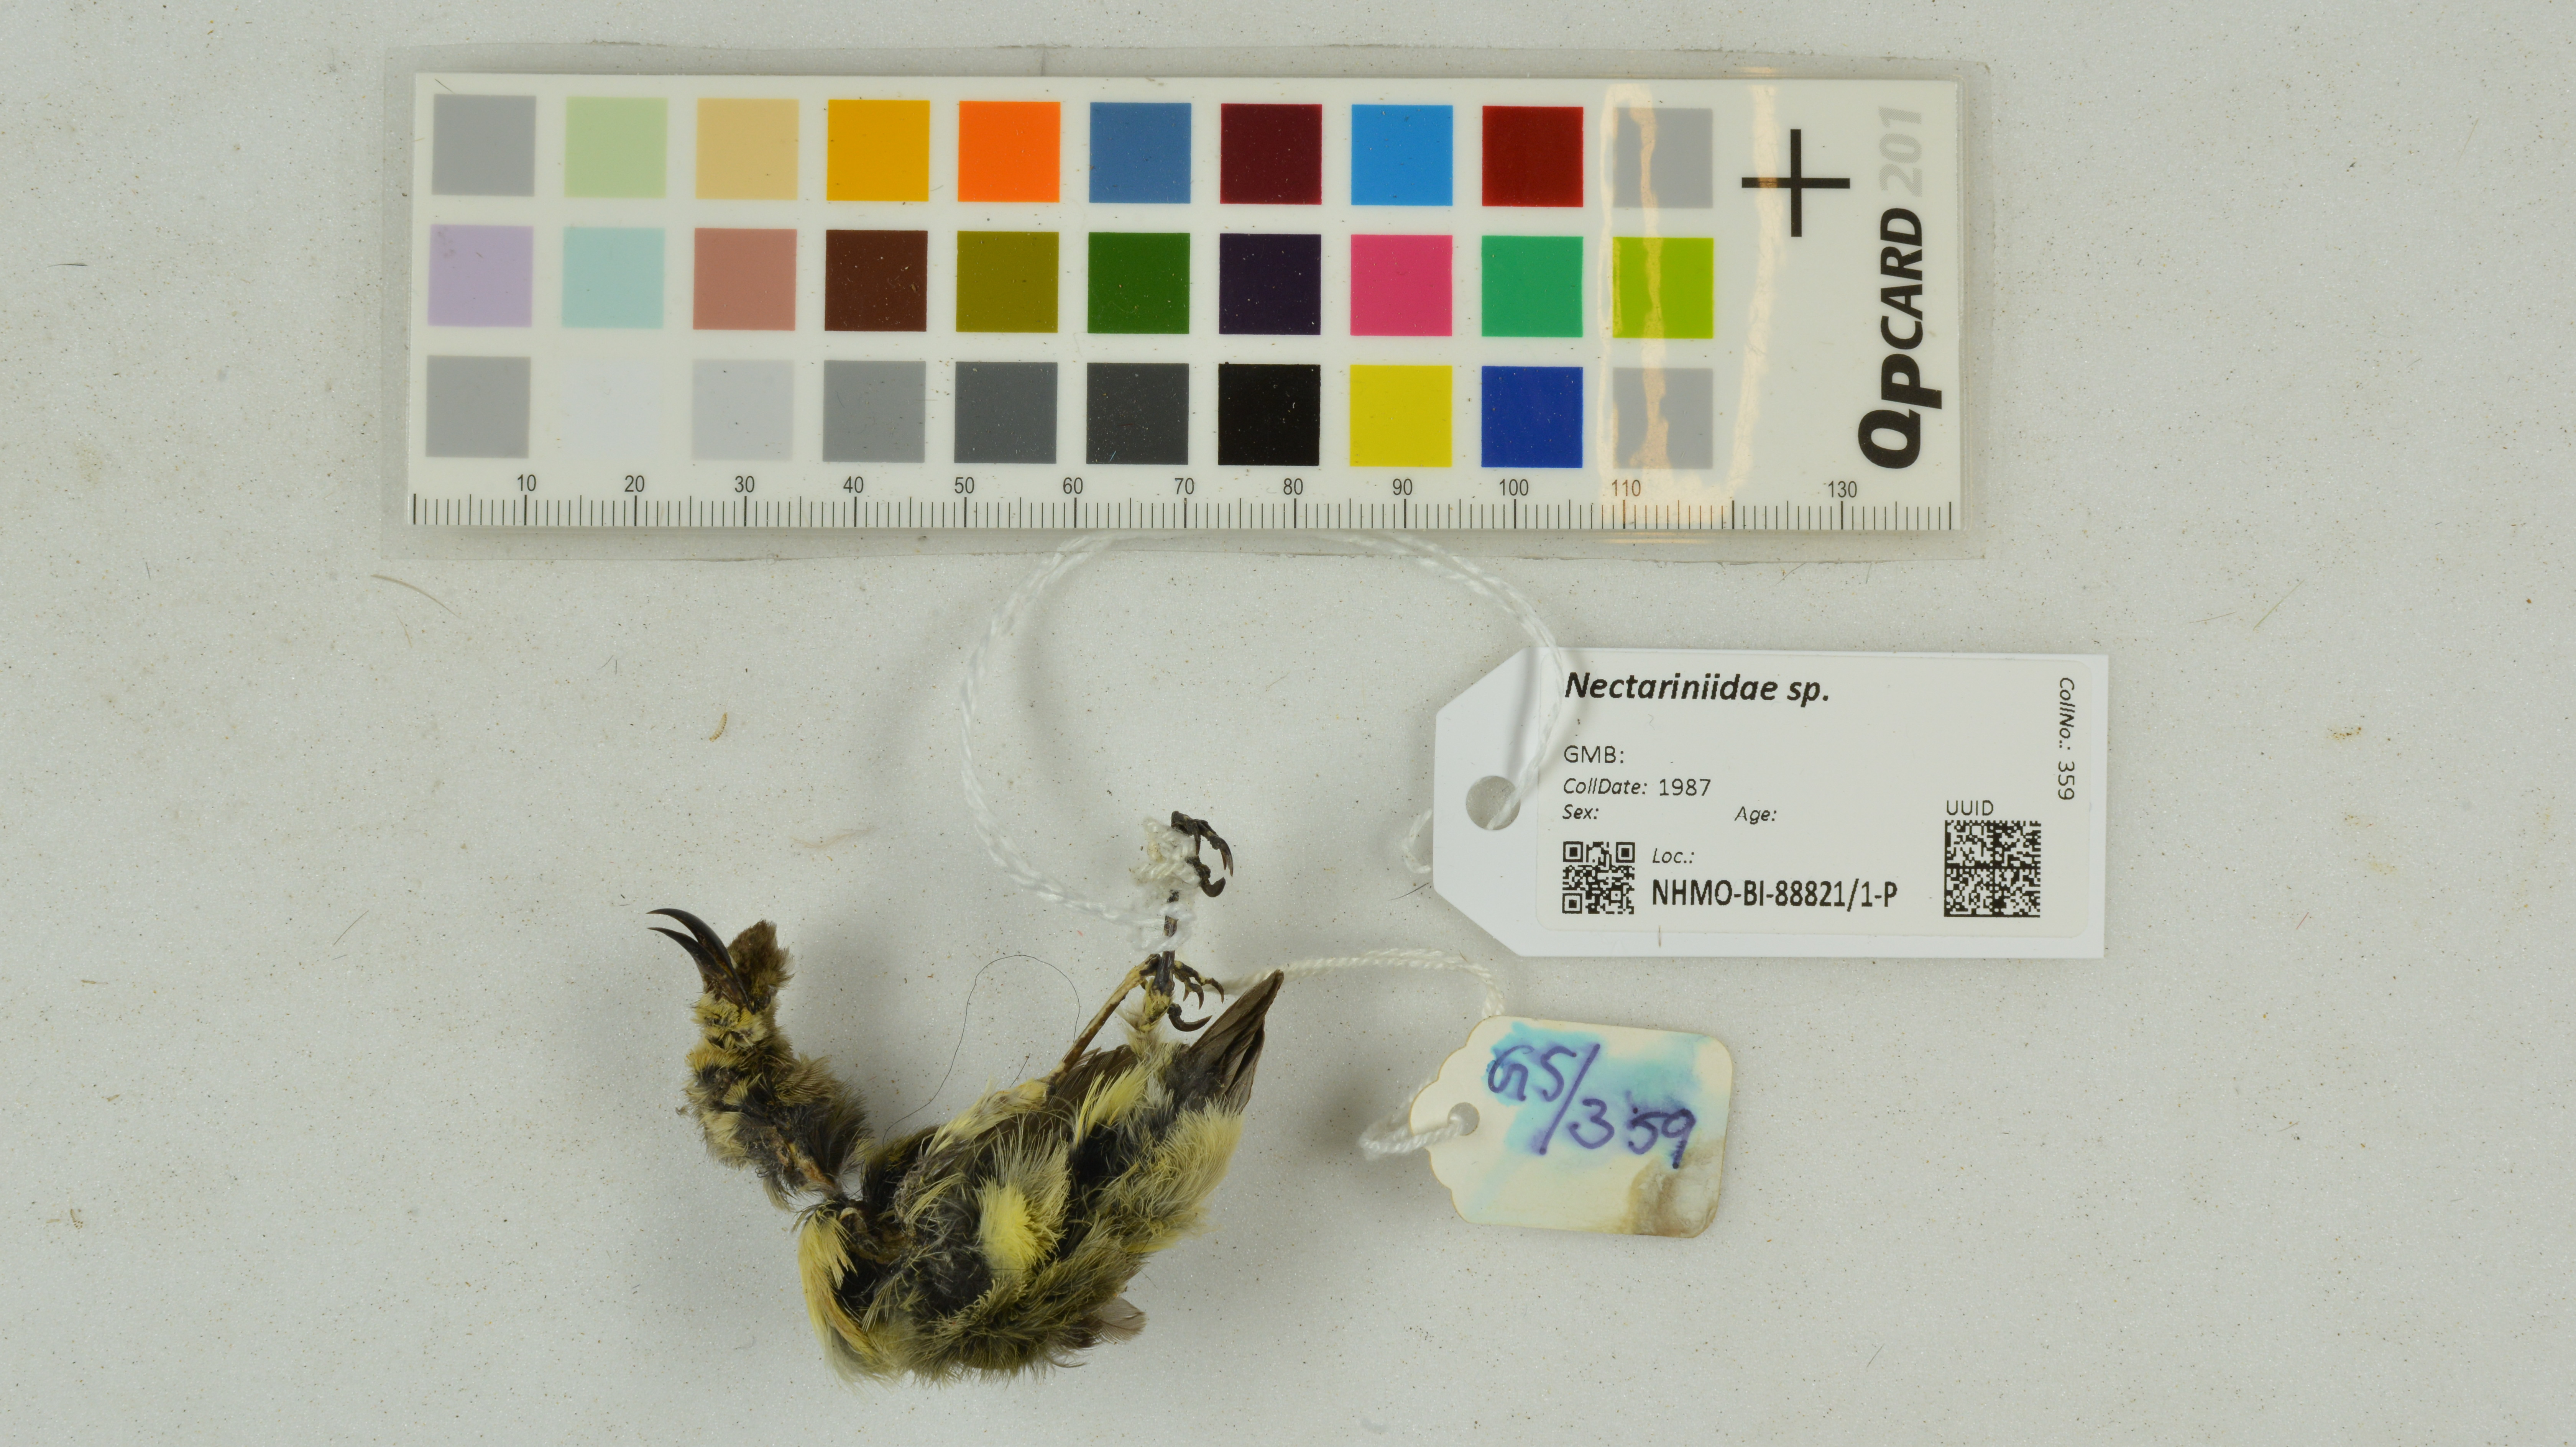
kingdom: Animalia
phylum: Chordata
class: Aves
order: Passeriformes
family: Nectariniidae
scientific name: Nectariniidae
